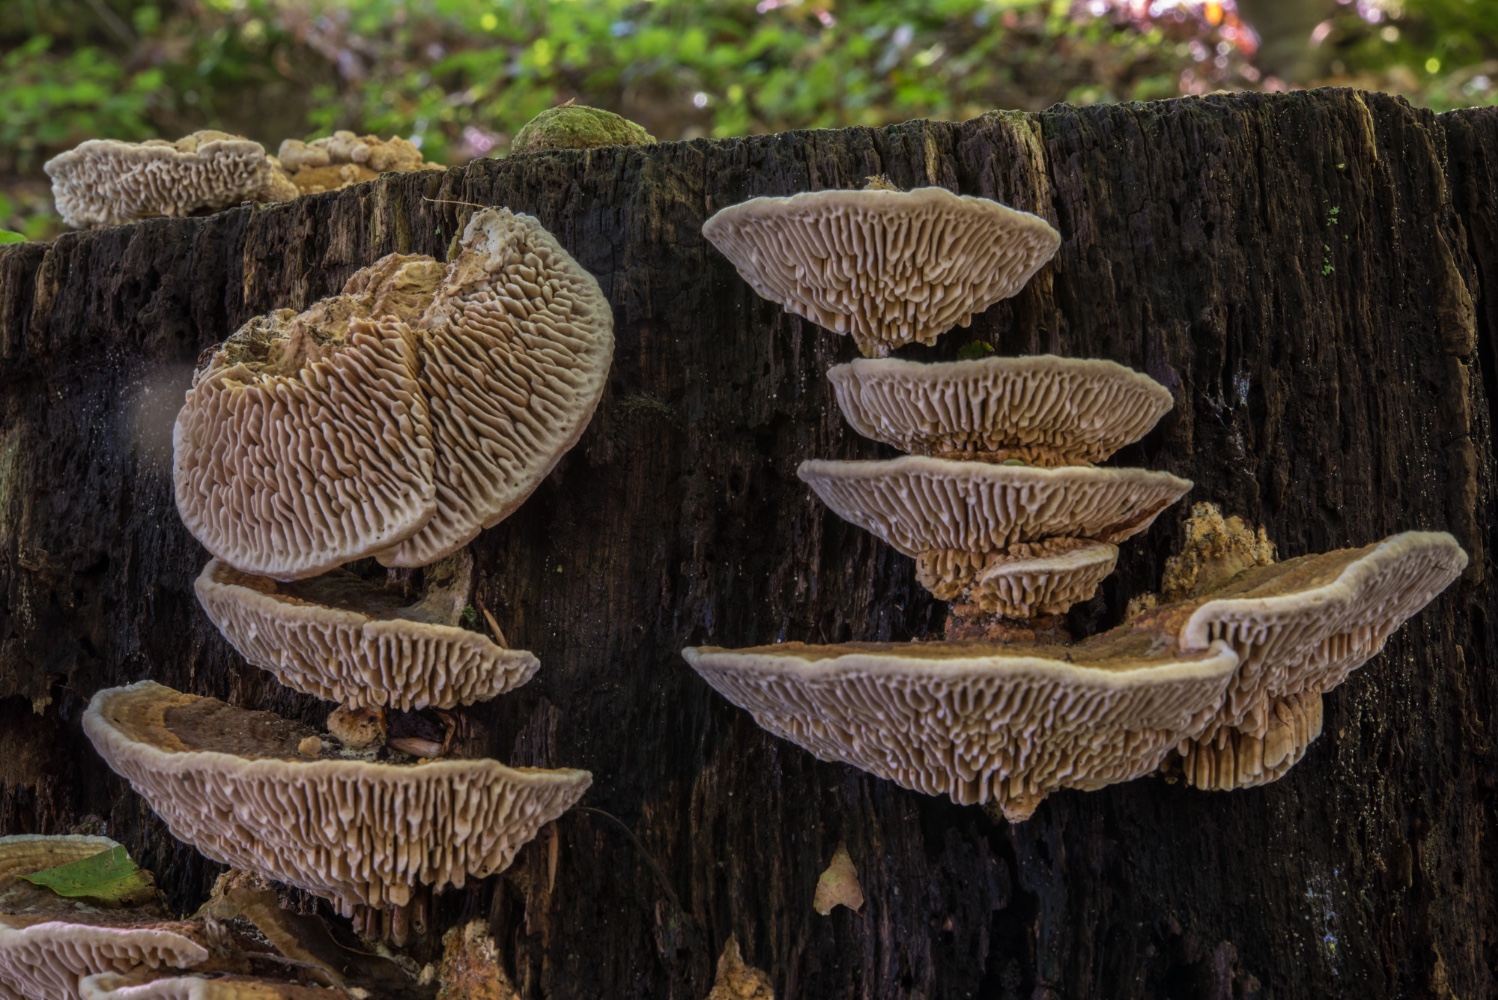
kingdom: Fungi
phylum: Basidiomycota
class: Agaricomycetes
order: Polyporales
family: Fomitopsidaceae
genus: Daedalea
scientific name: Daedalea quercina
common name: ege-labyrintsvamp
